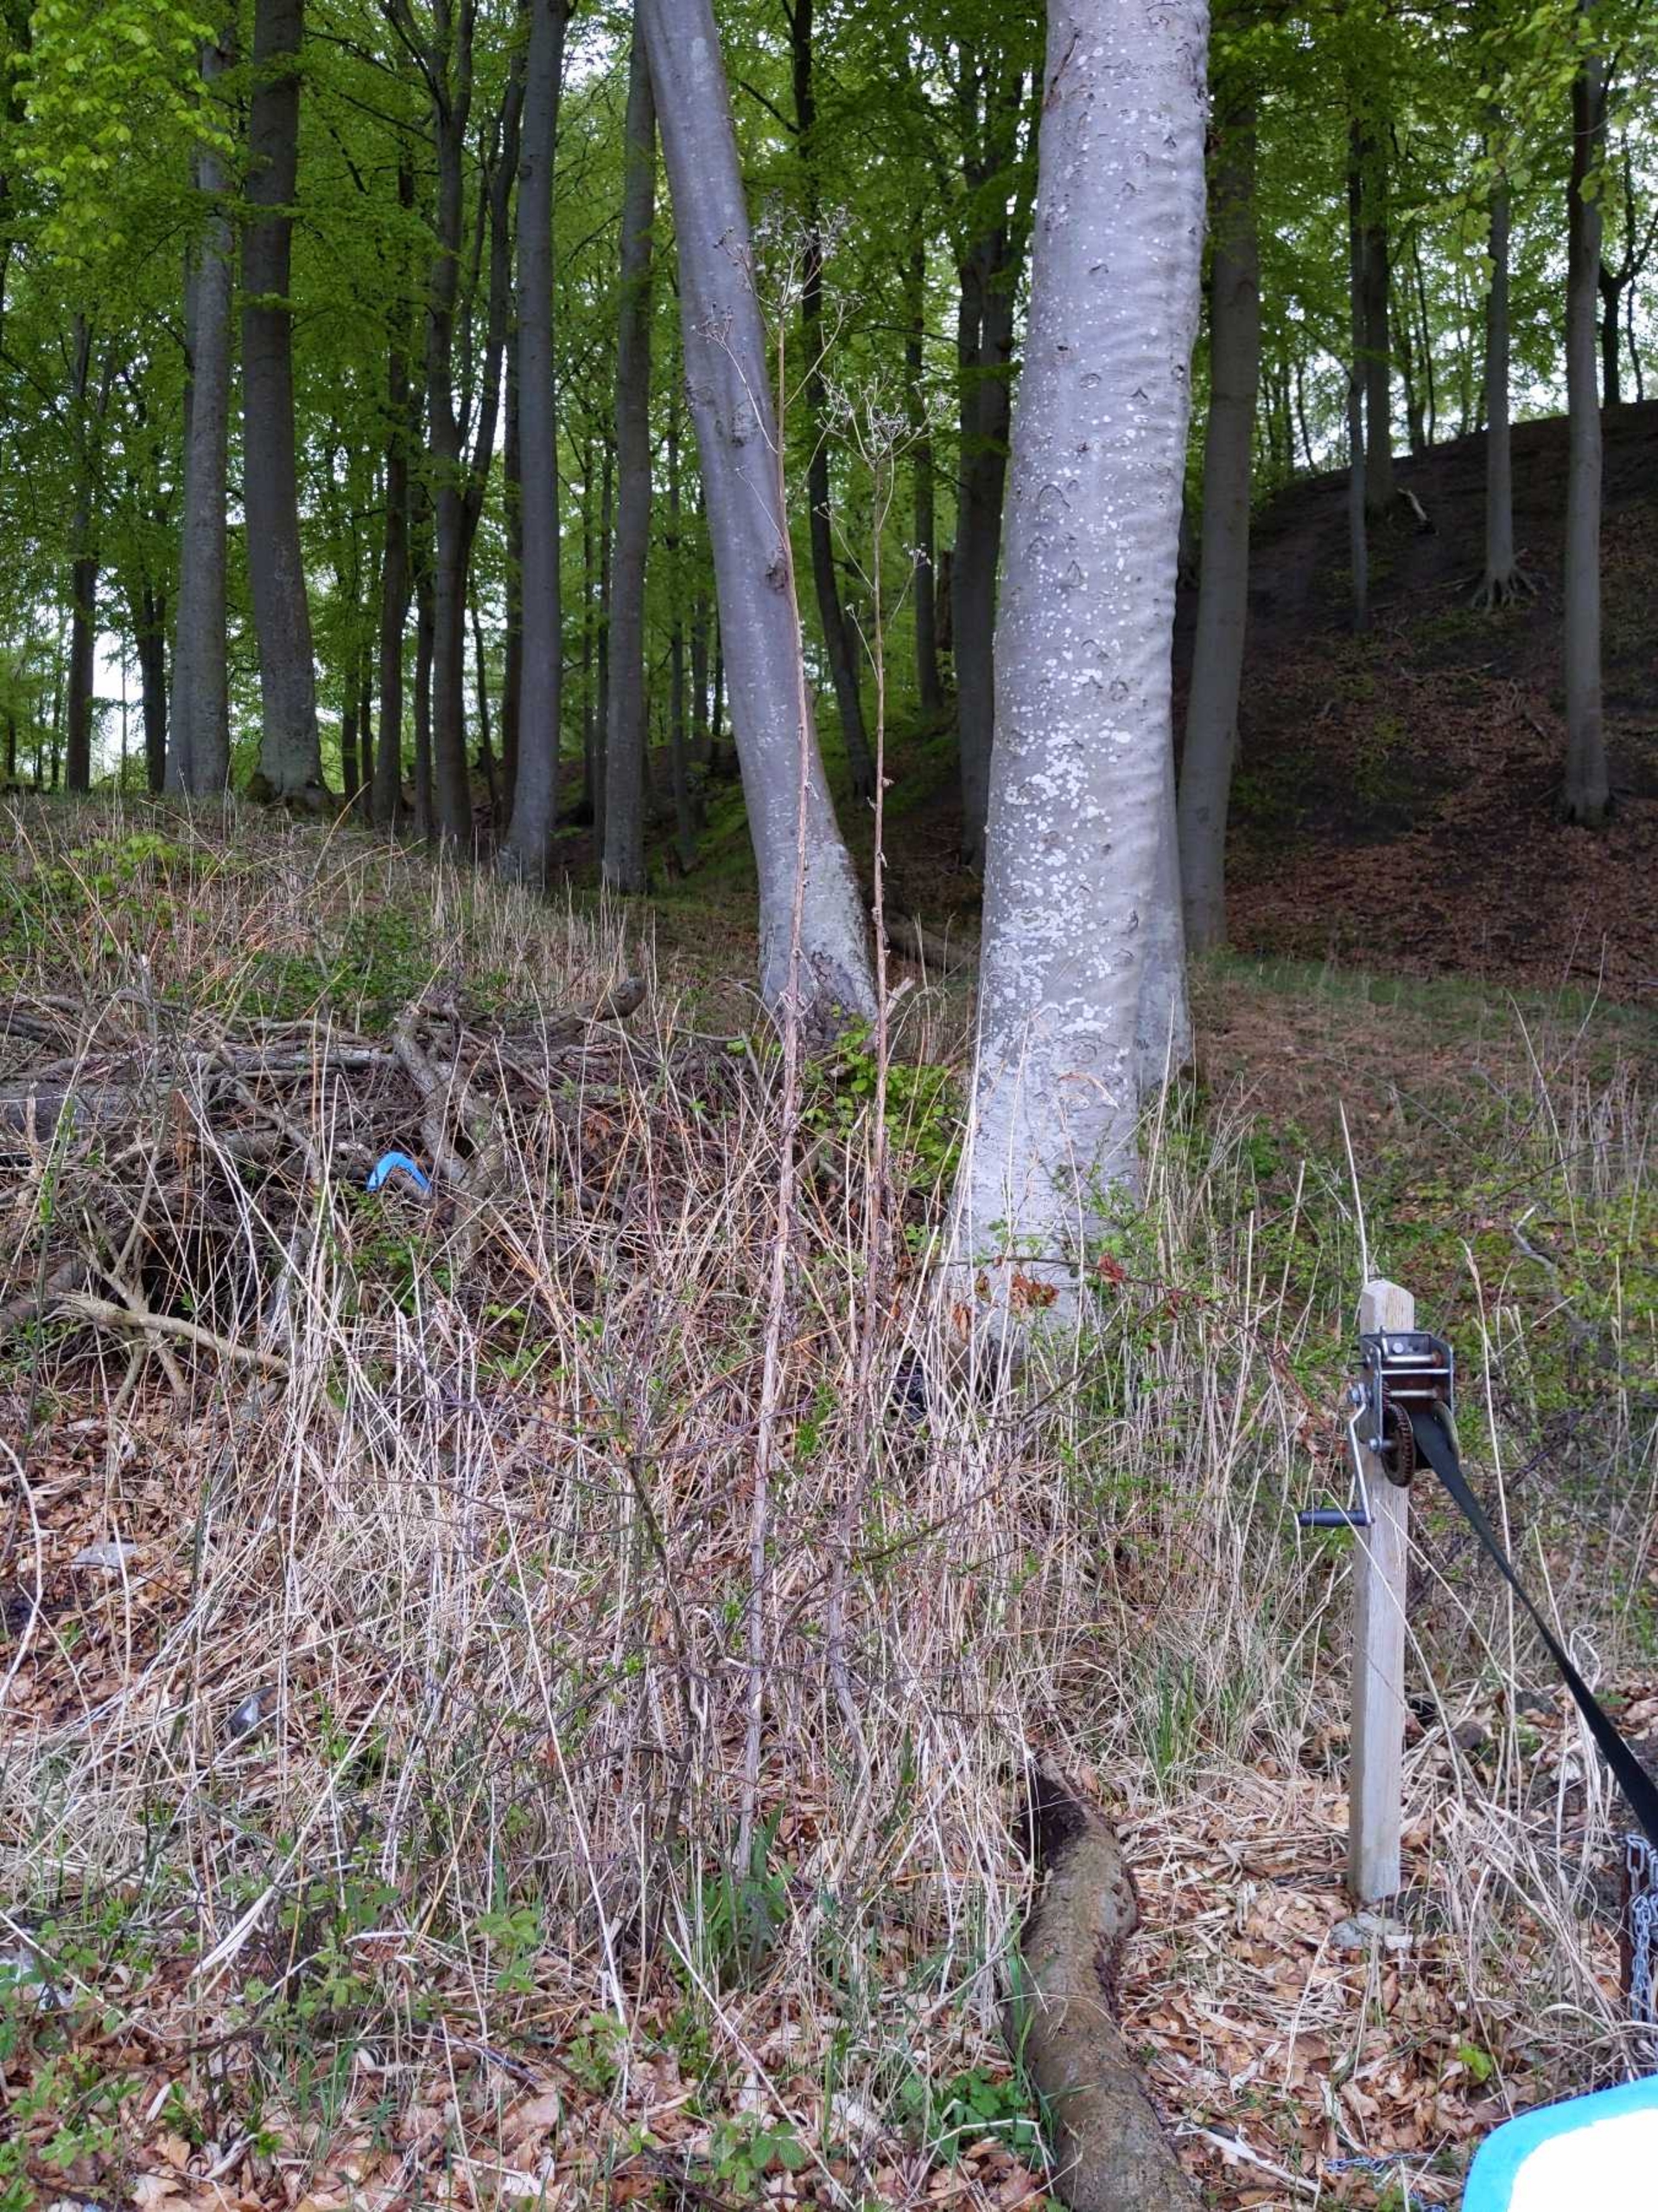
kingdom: Plantae
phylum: Tracheophyta
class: Magnoliopsida
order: Asterales
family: Asteraceae
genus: Sonchus
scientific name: Sonchus palustris
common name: Kær-svinemælk
